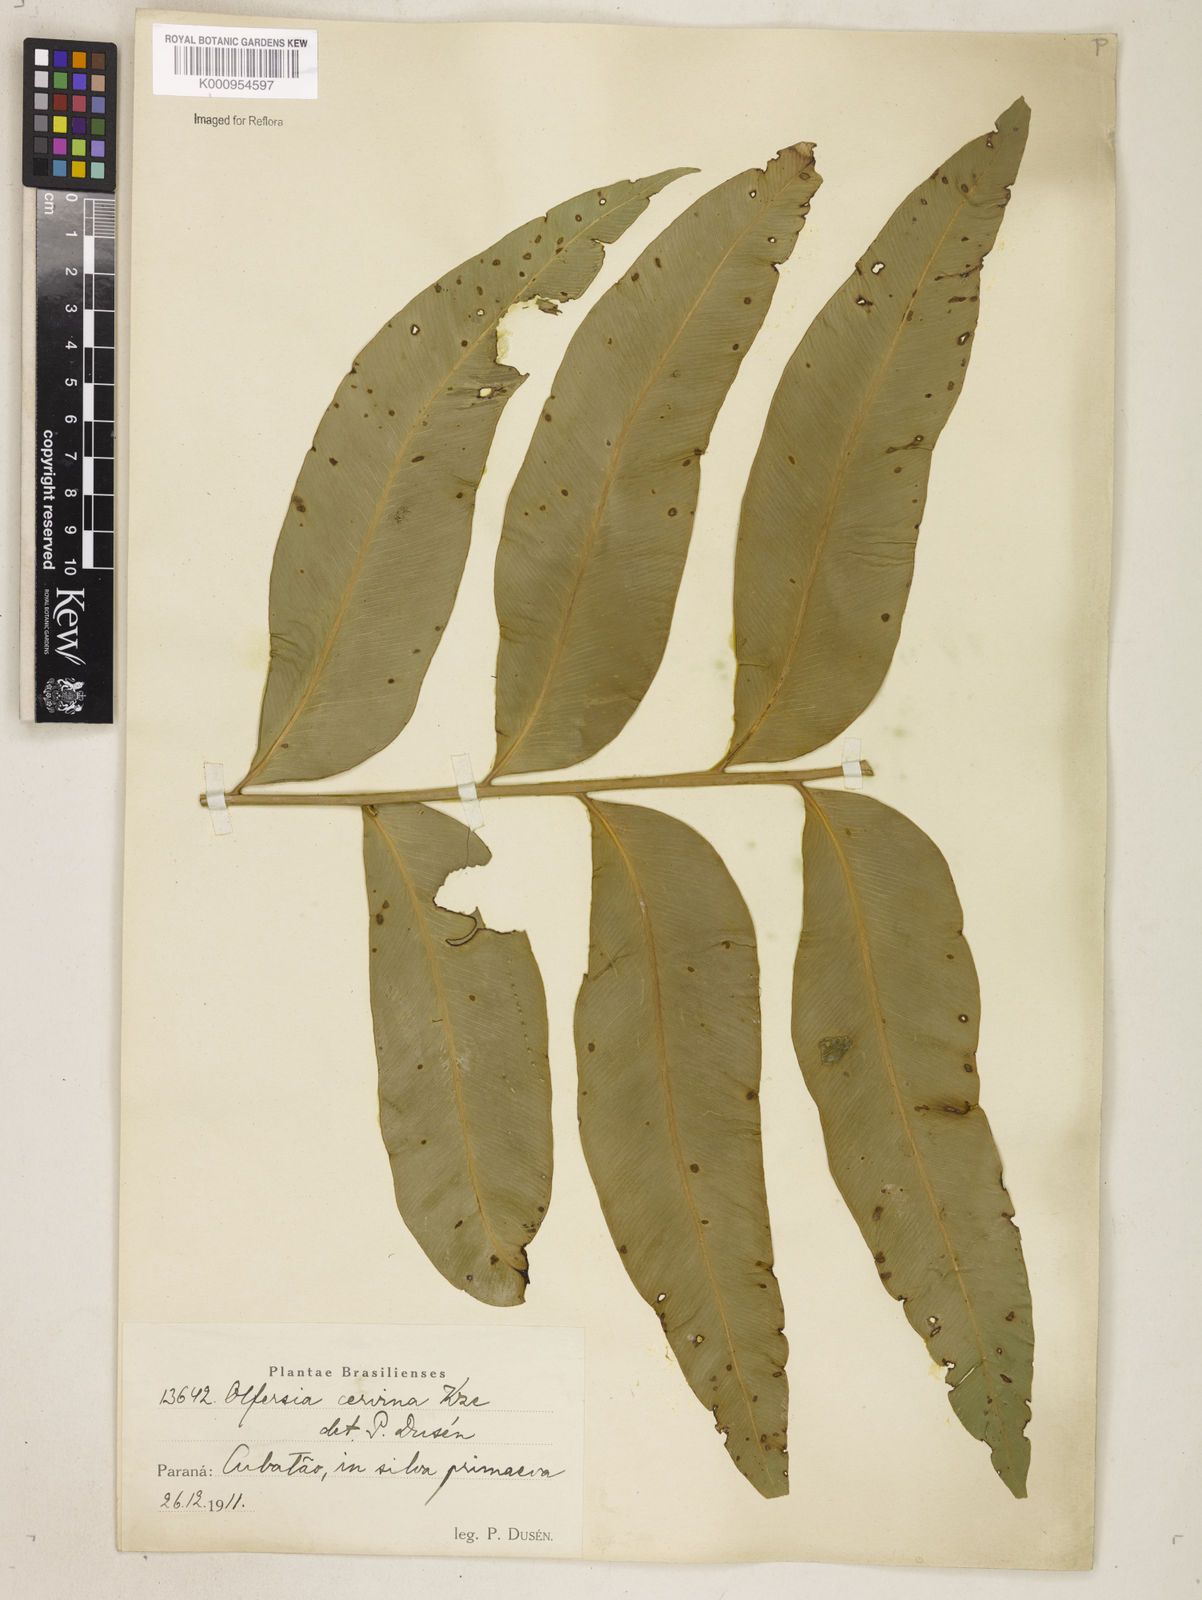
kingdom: Plantae
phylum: Tracheophyta
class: Polypodiopsida
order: Polypodiales
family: Dryopteridaceae
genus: Olfersia
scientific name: Olfersia cervina
